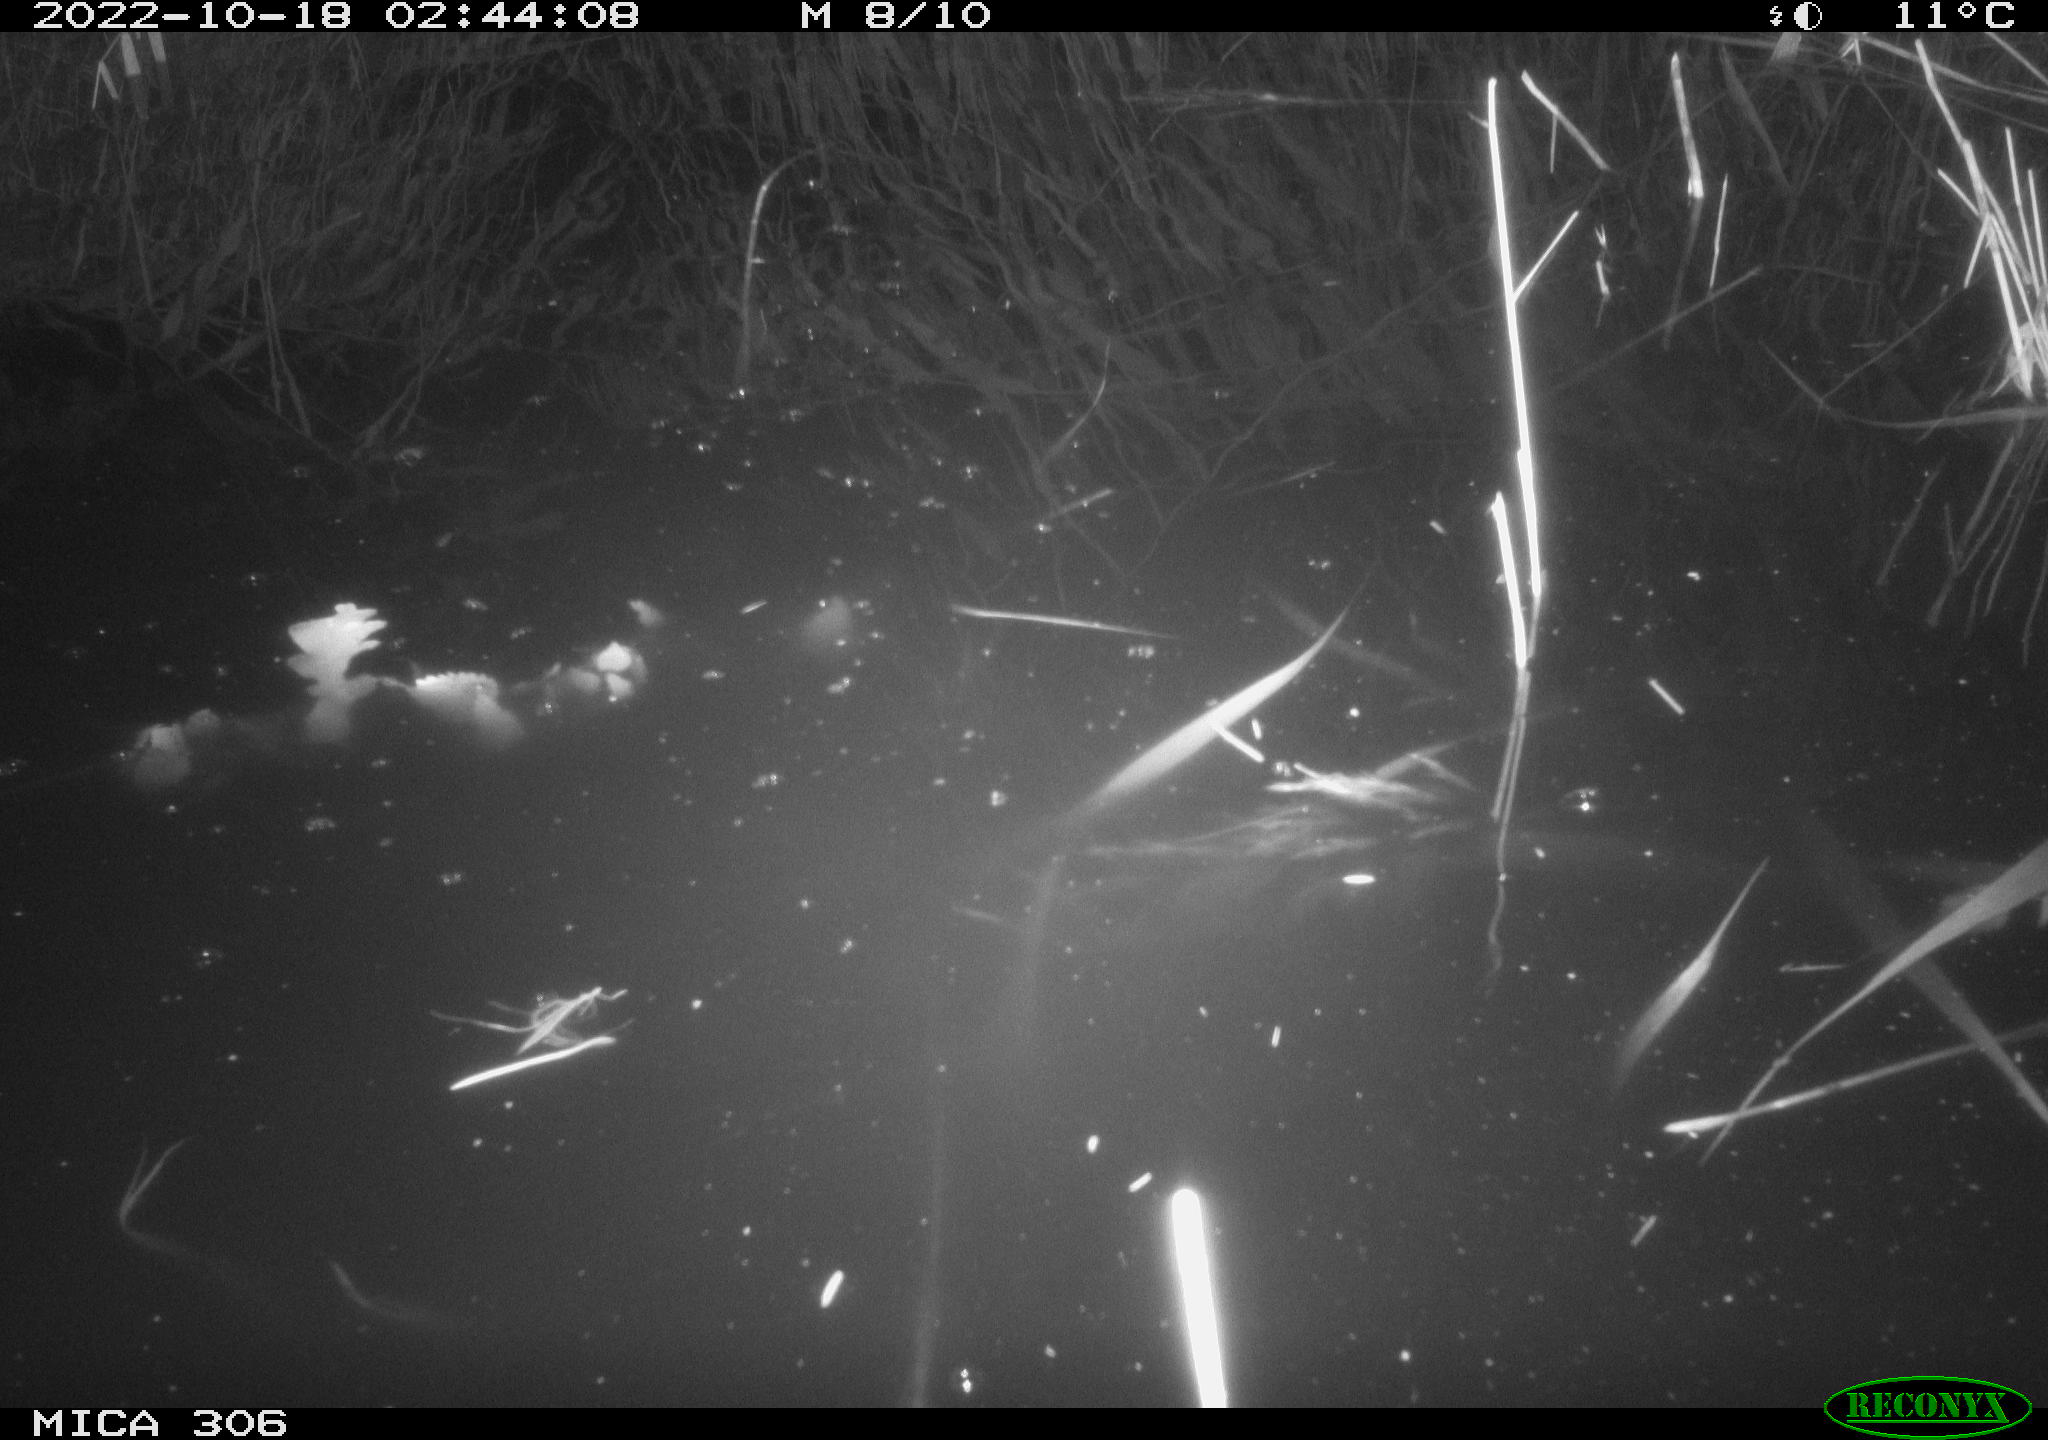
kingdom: Animalia
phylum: Chordata
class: Mammalia
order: Rodentia
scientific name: Rodentia
